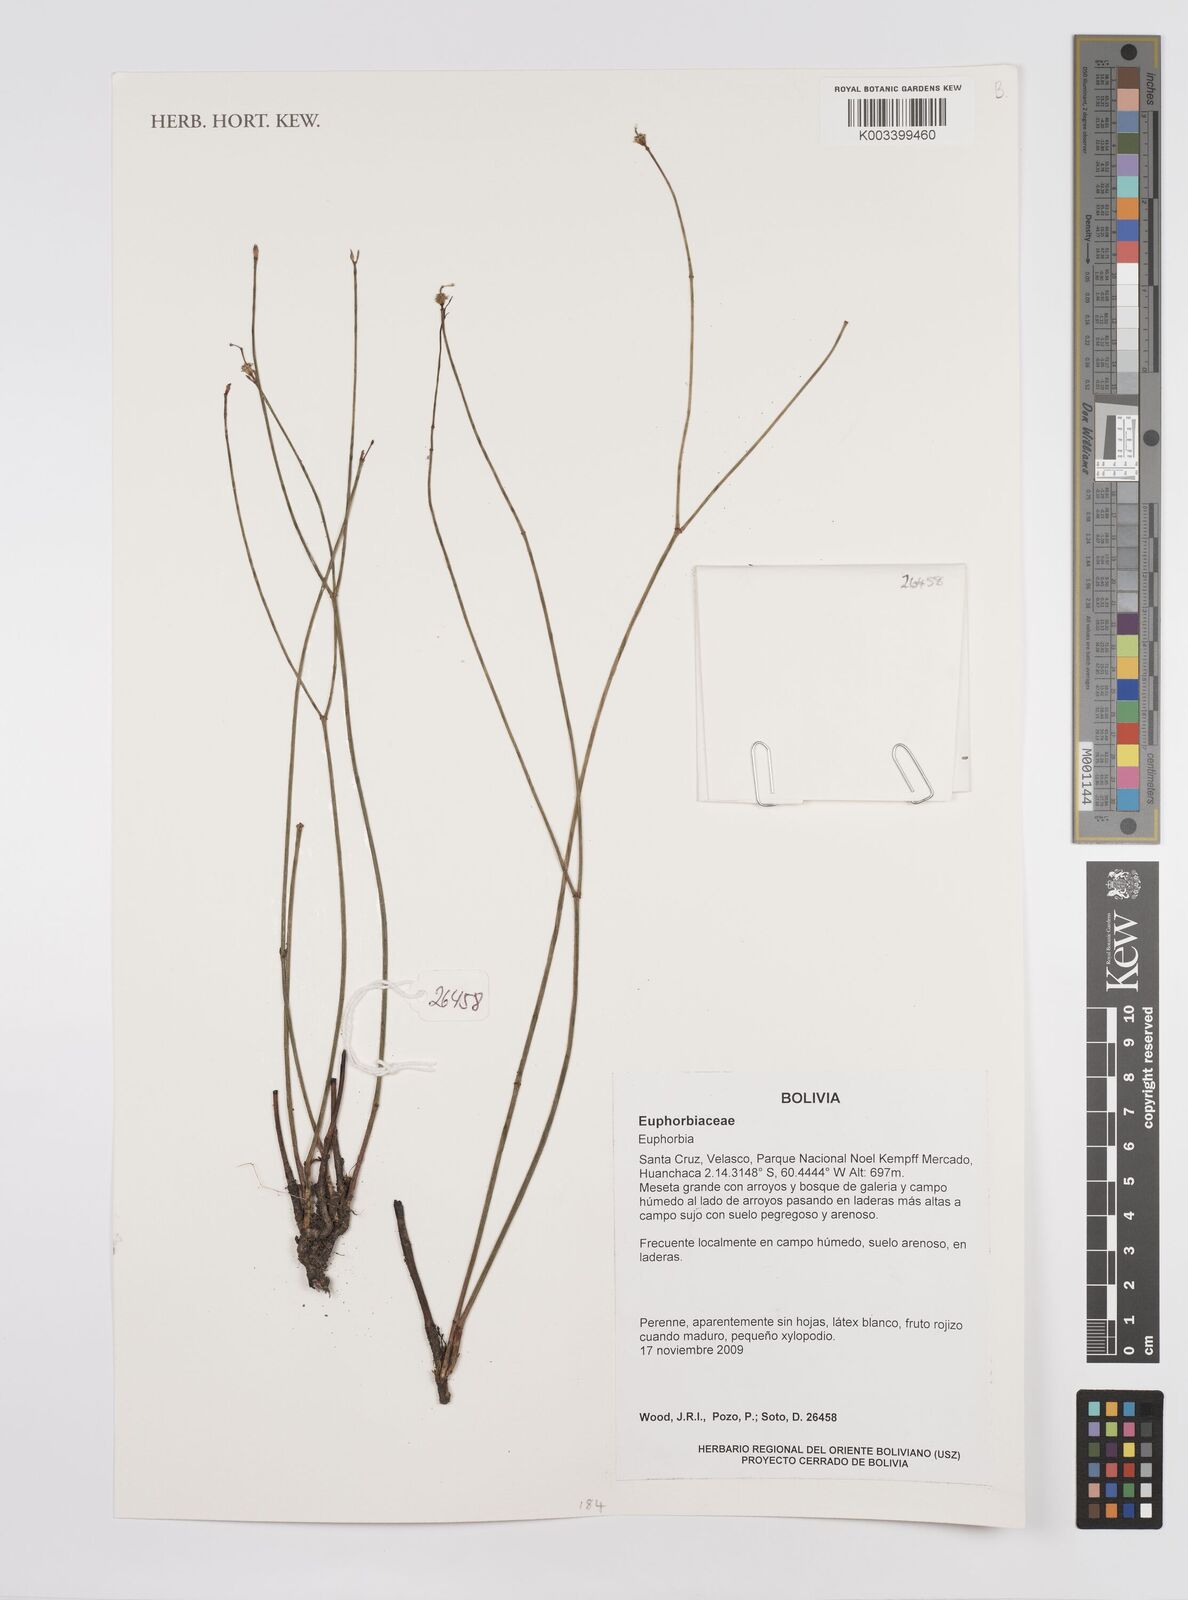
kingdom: Plantae
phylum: Tracheophyta
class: Magnoliopsida
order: Malpighiales
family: Euphorbiaceae
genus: Euphorbia
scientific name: Euphorbia
